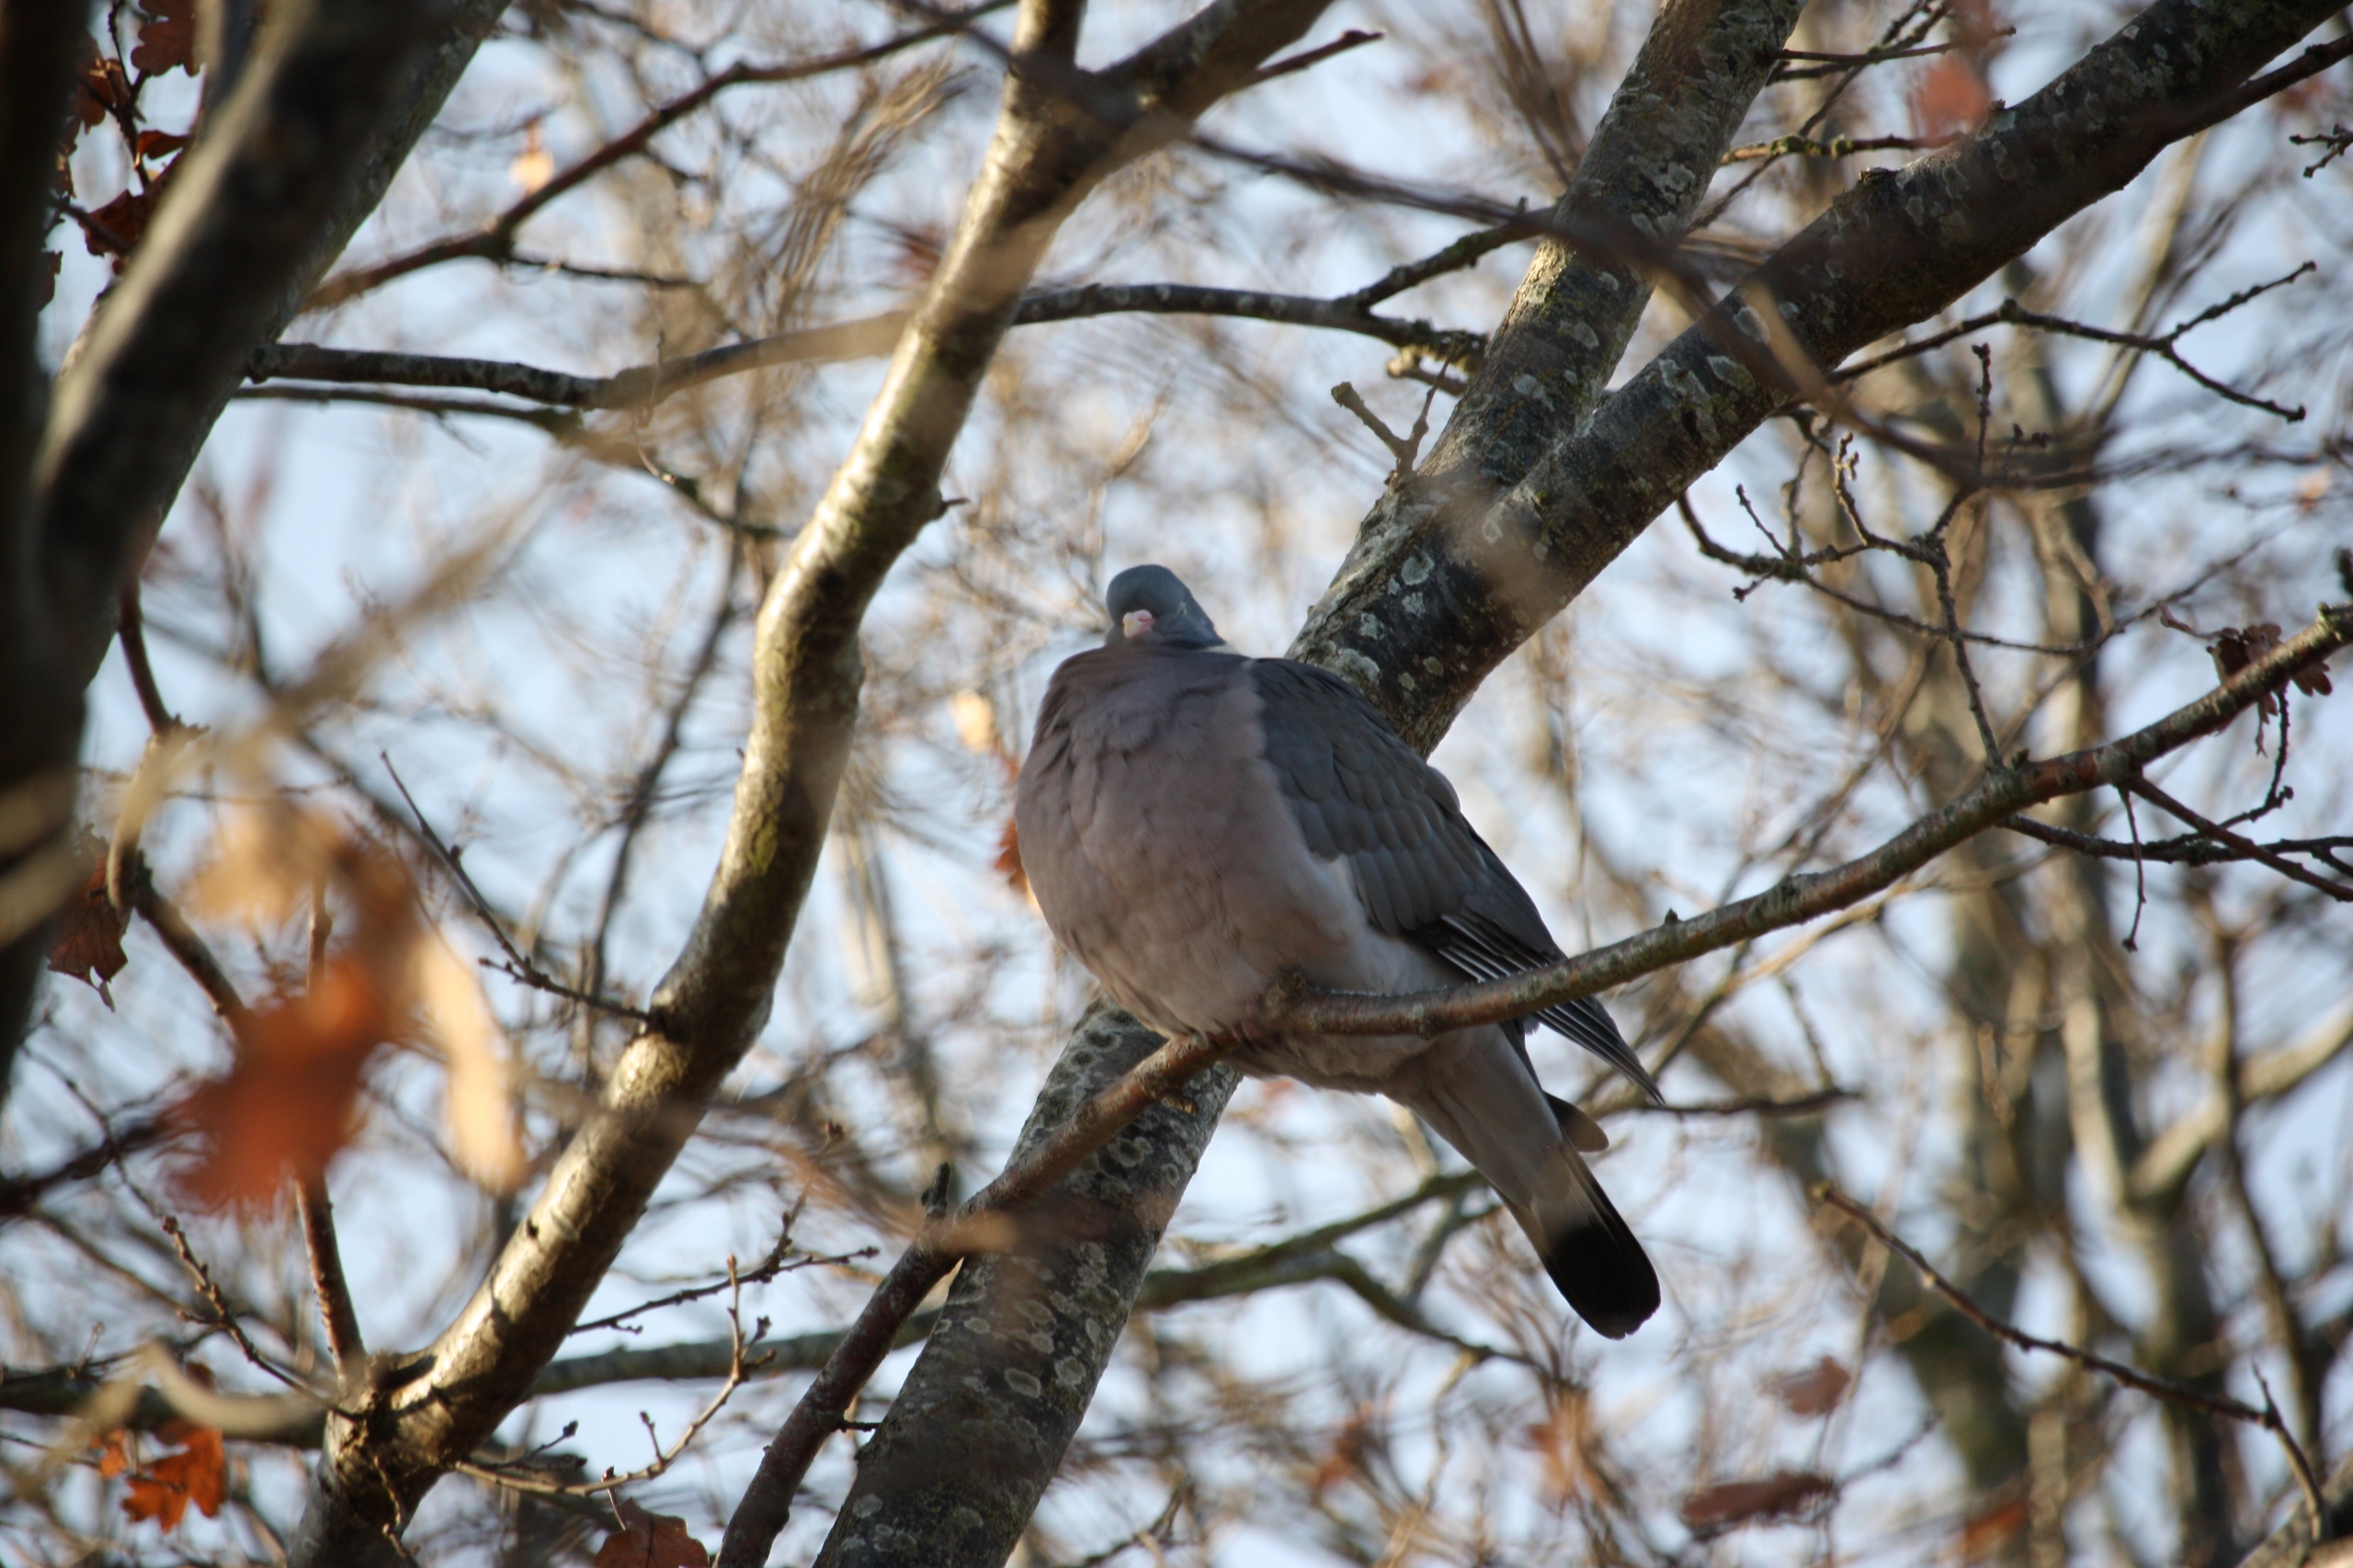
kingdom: Animalia
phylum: Chordata
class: Aves
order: Columbiformes
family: Columbidae
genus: Columba
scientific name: Columba palumbus
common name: Ringdue
